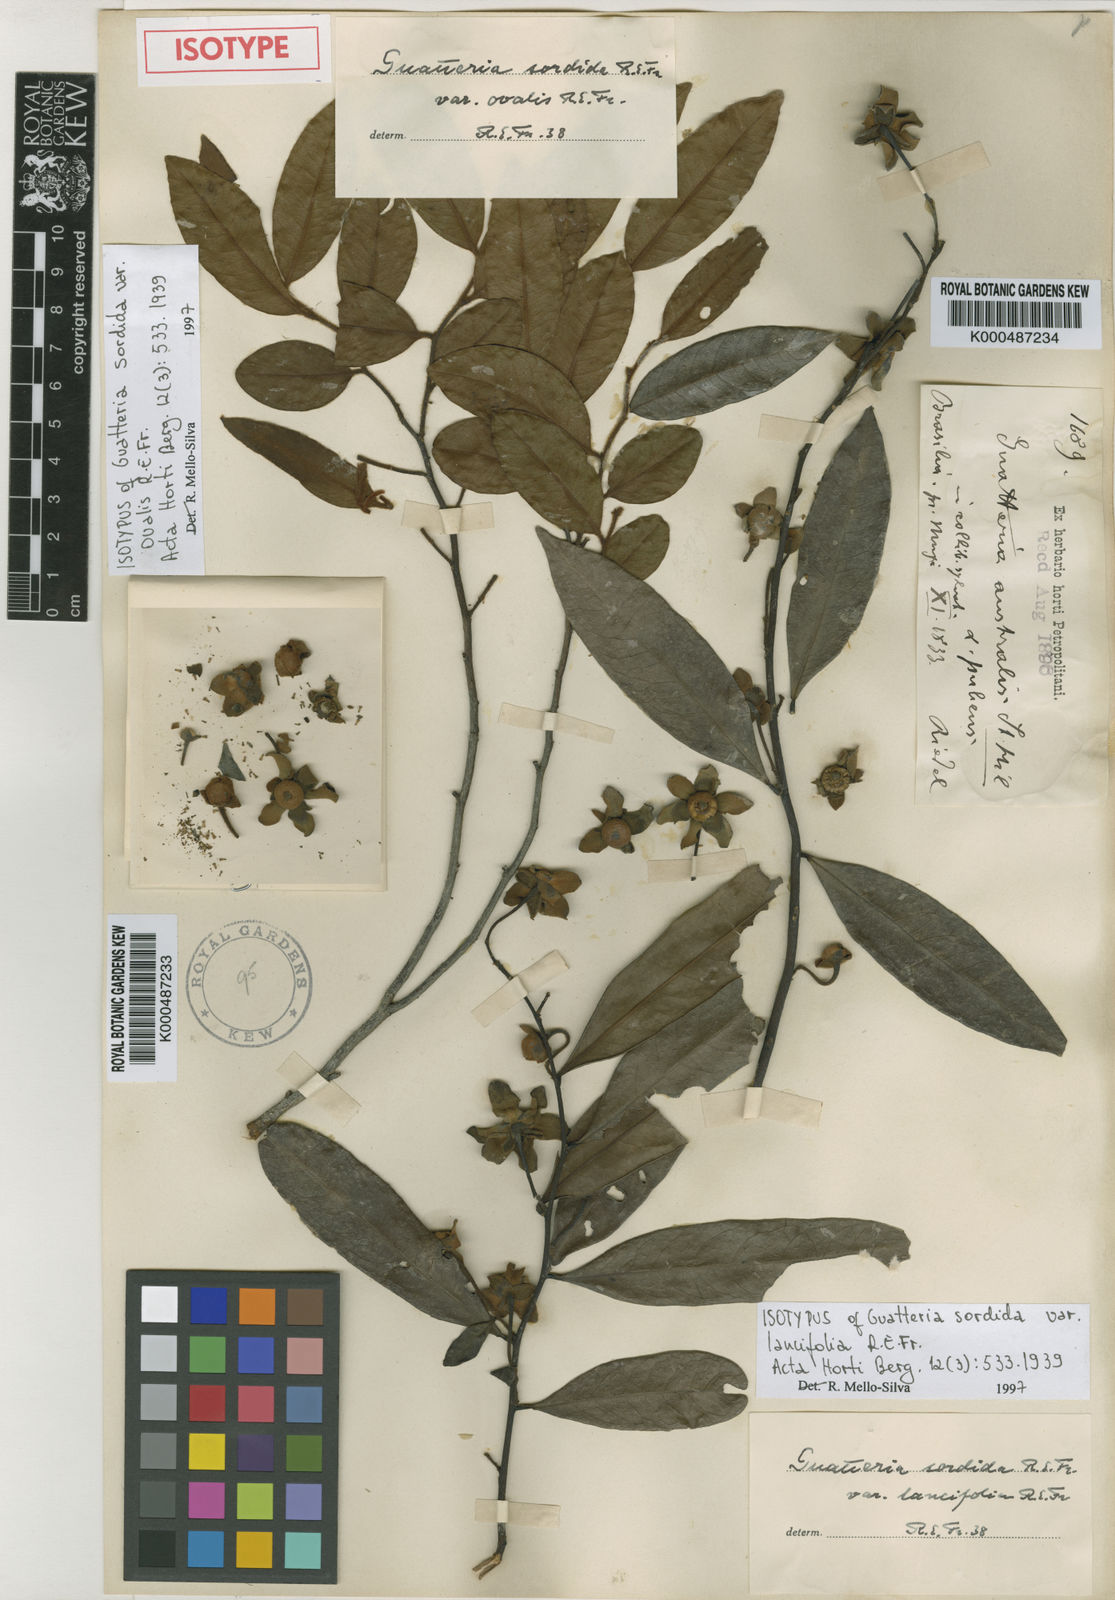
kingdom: Plantae
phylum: Tracheophyta
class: Magnoliopsida
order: Magnoliales
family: Annonaceae
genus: Guatteria
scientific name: Guatteria punctata
